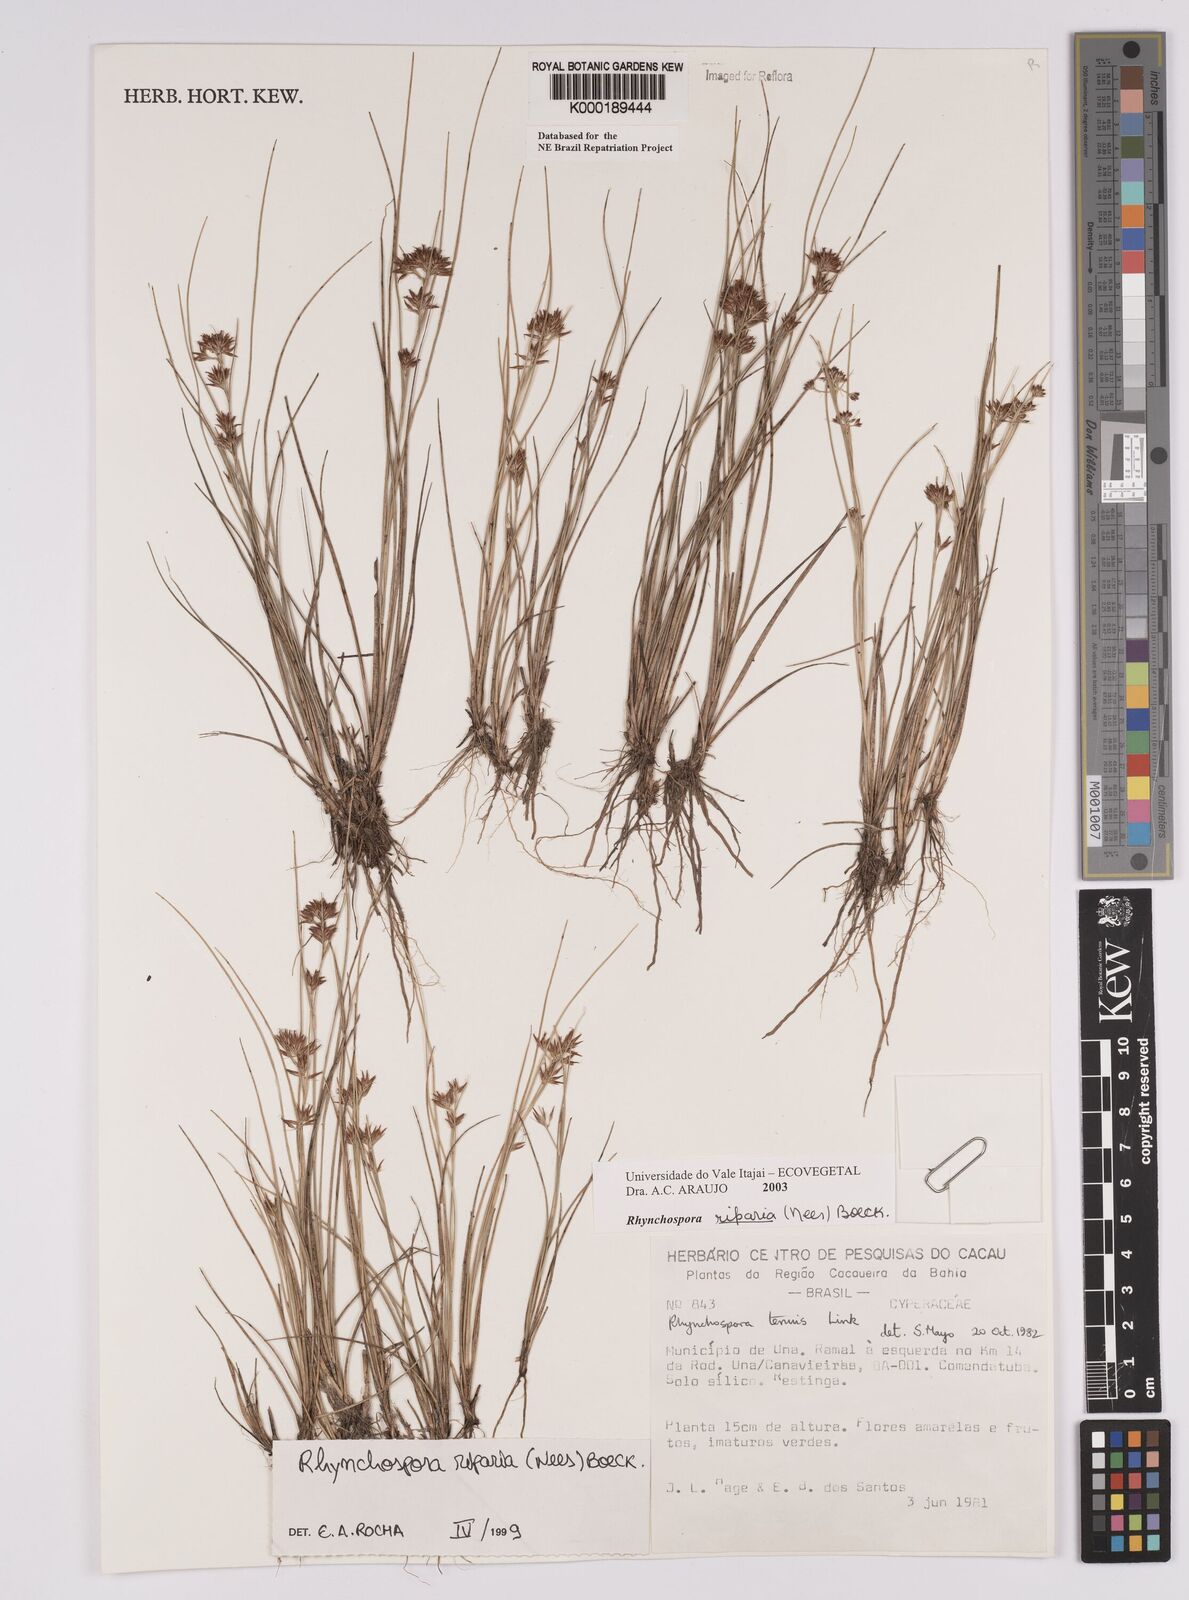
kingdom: Plantae
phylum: Tracheophyta
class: Liliopsida
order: Poales
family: Cyperaceae
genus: Rhynchospora
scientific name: Rhynchospora riparia
